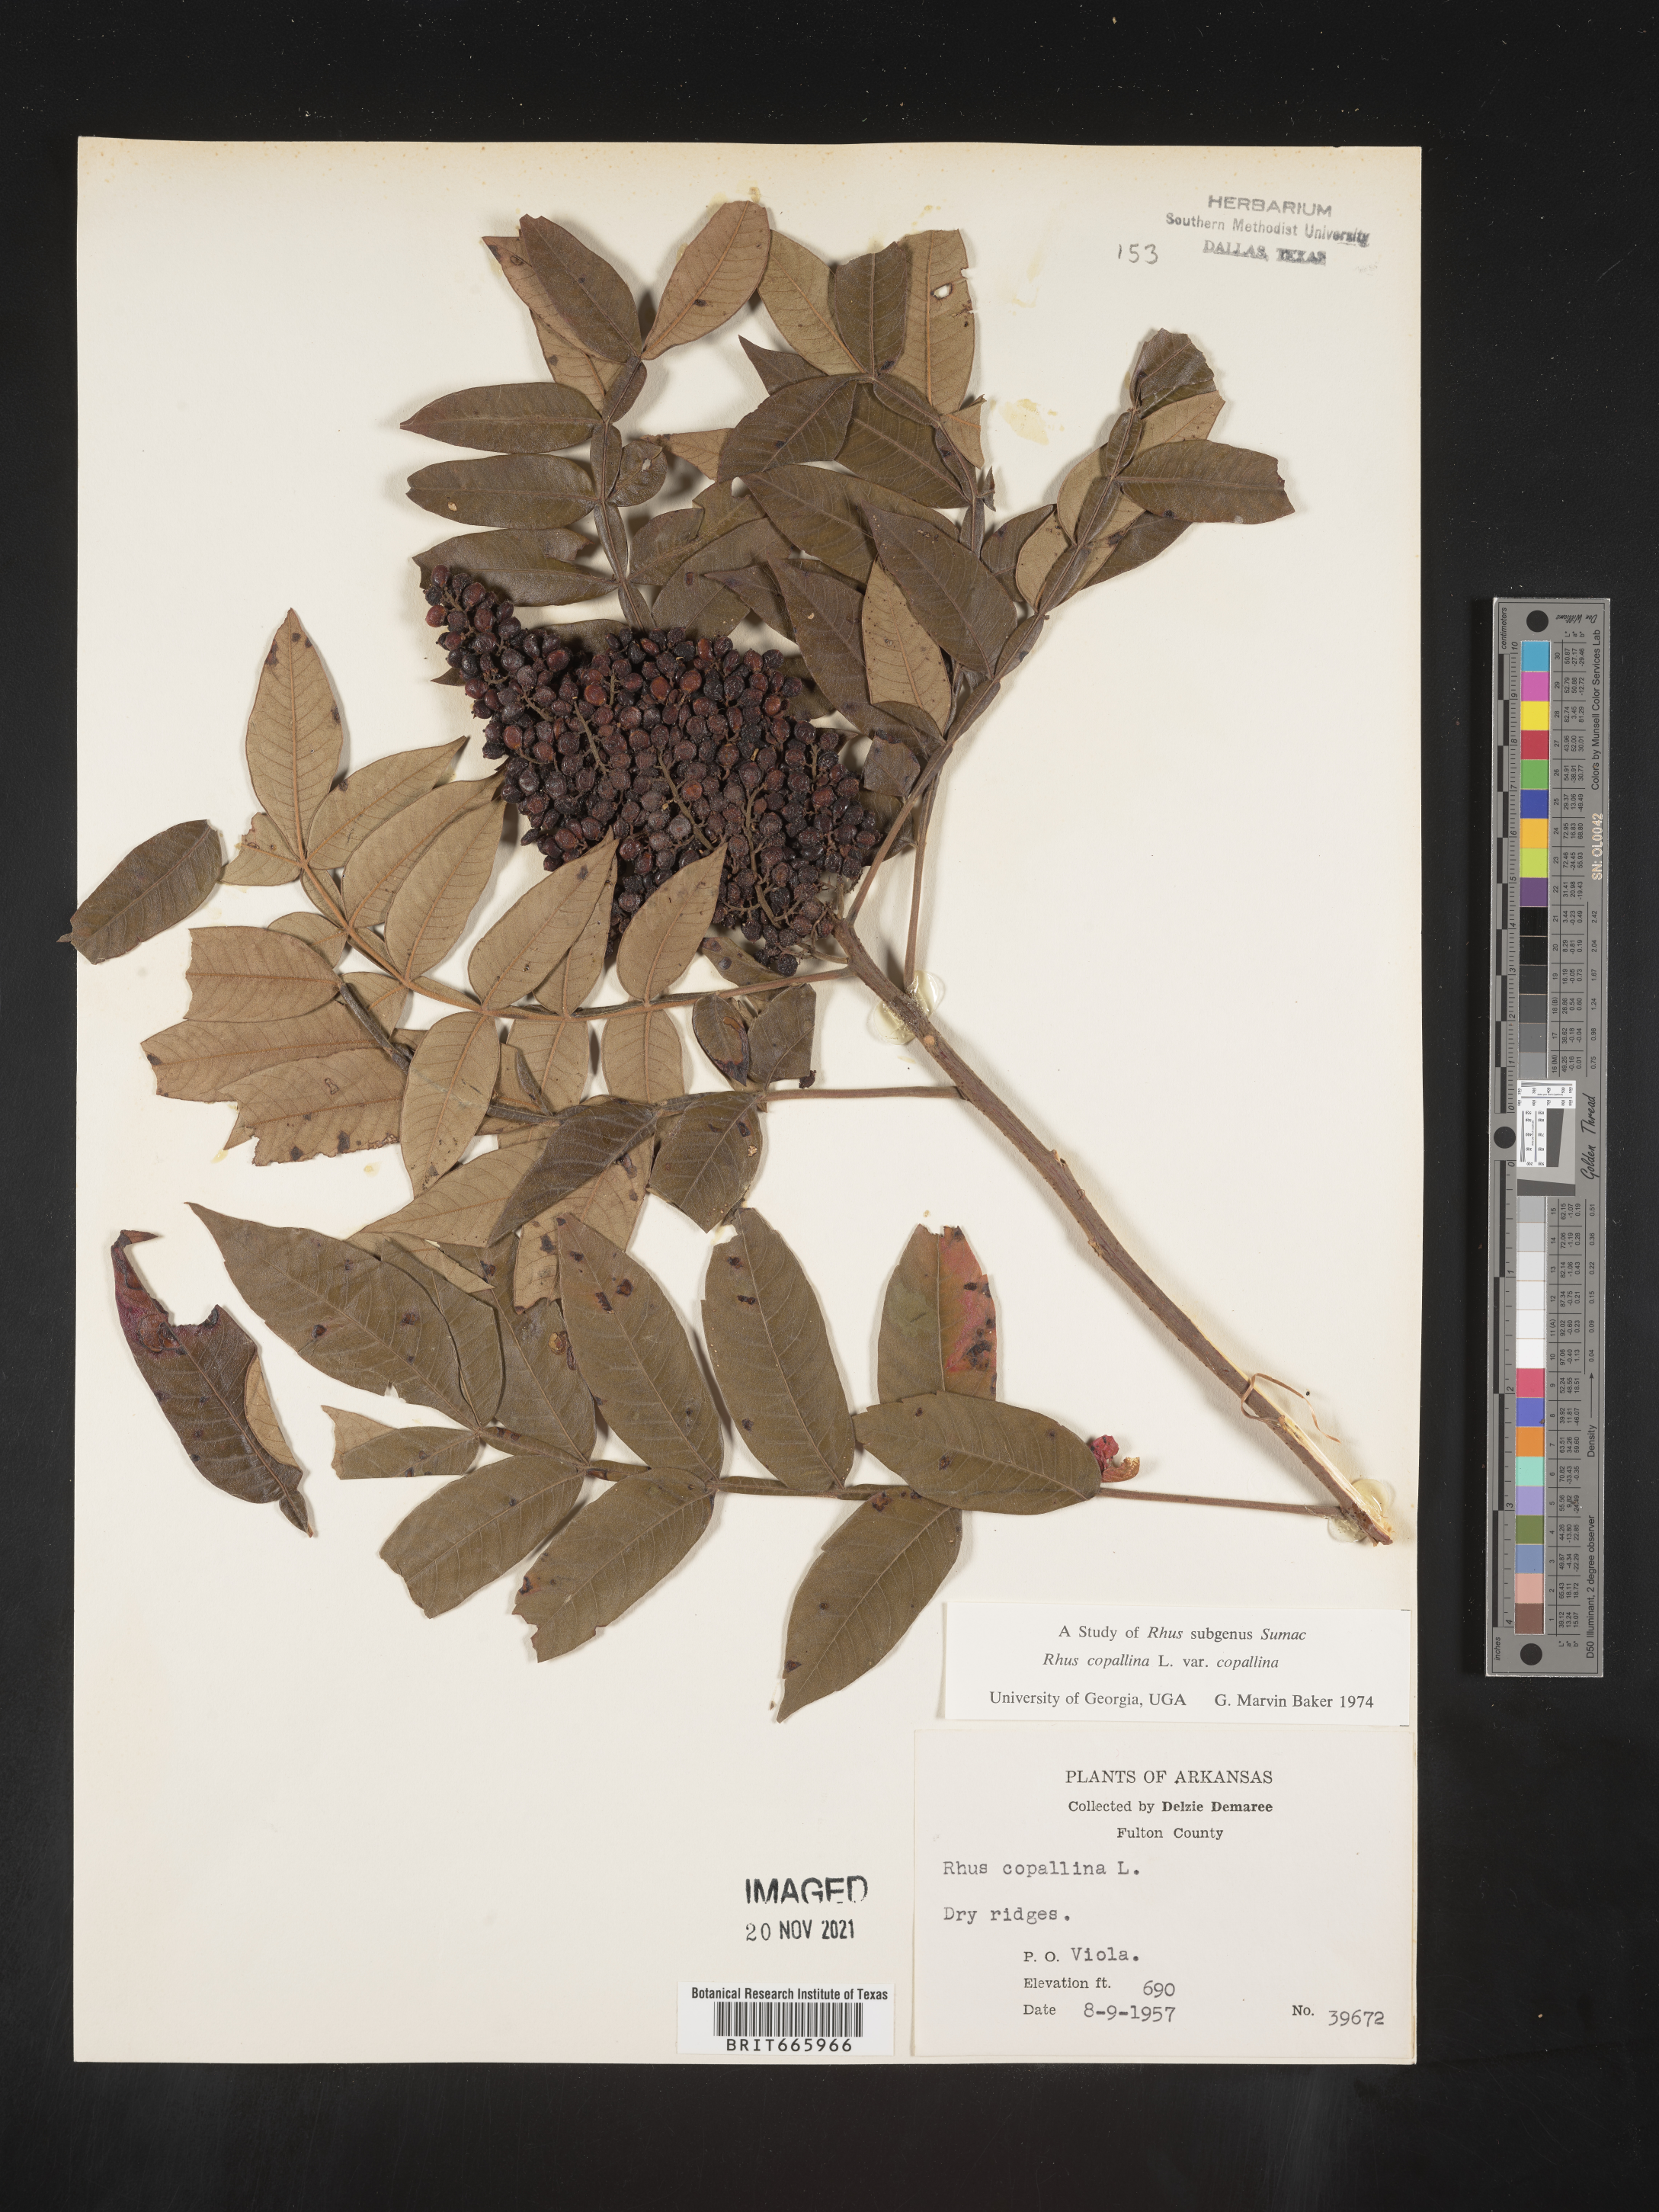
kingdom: Plantae
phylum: Tracheophyta
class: Magnoliopsida
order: Sapindales
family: Anacardiaceae
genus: Rhus
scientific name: Rhus copallina
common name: Shining sumac
